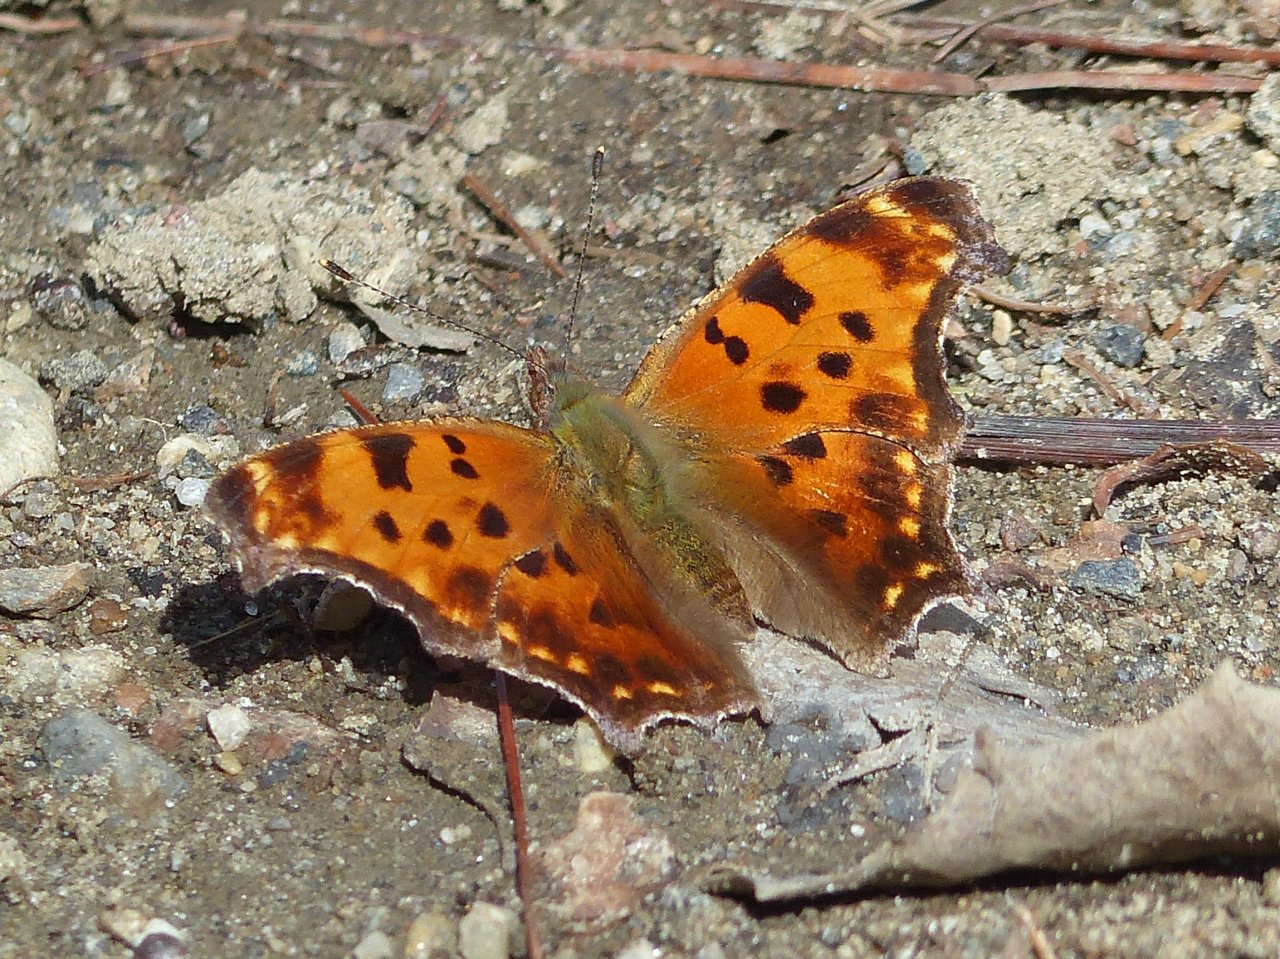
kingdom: Animalia
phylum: Arthropoda
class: Insecta
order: Lepidoptera
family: Nymphalidae
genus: Polygonia
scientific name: Polygonia comma
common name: Eastern Comma
